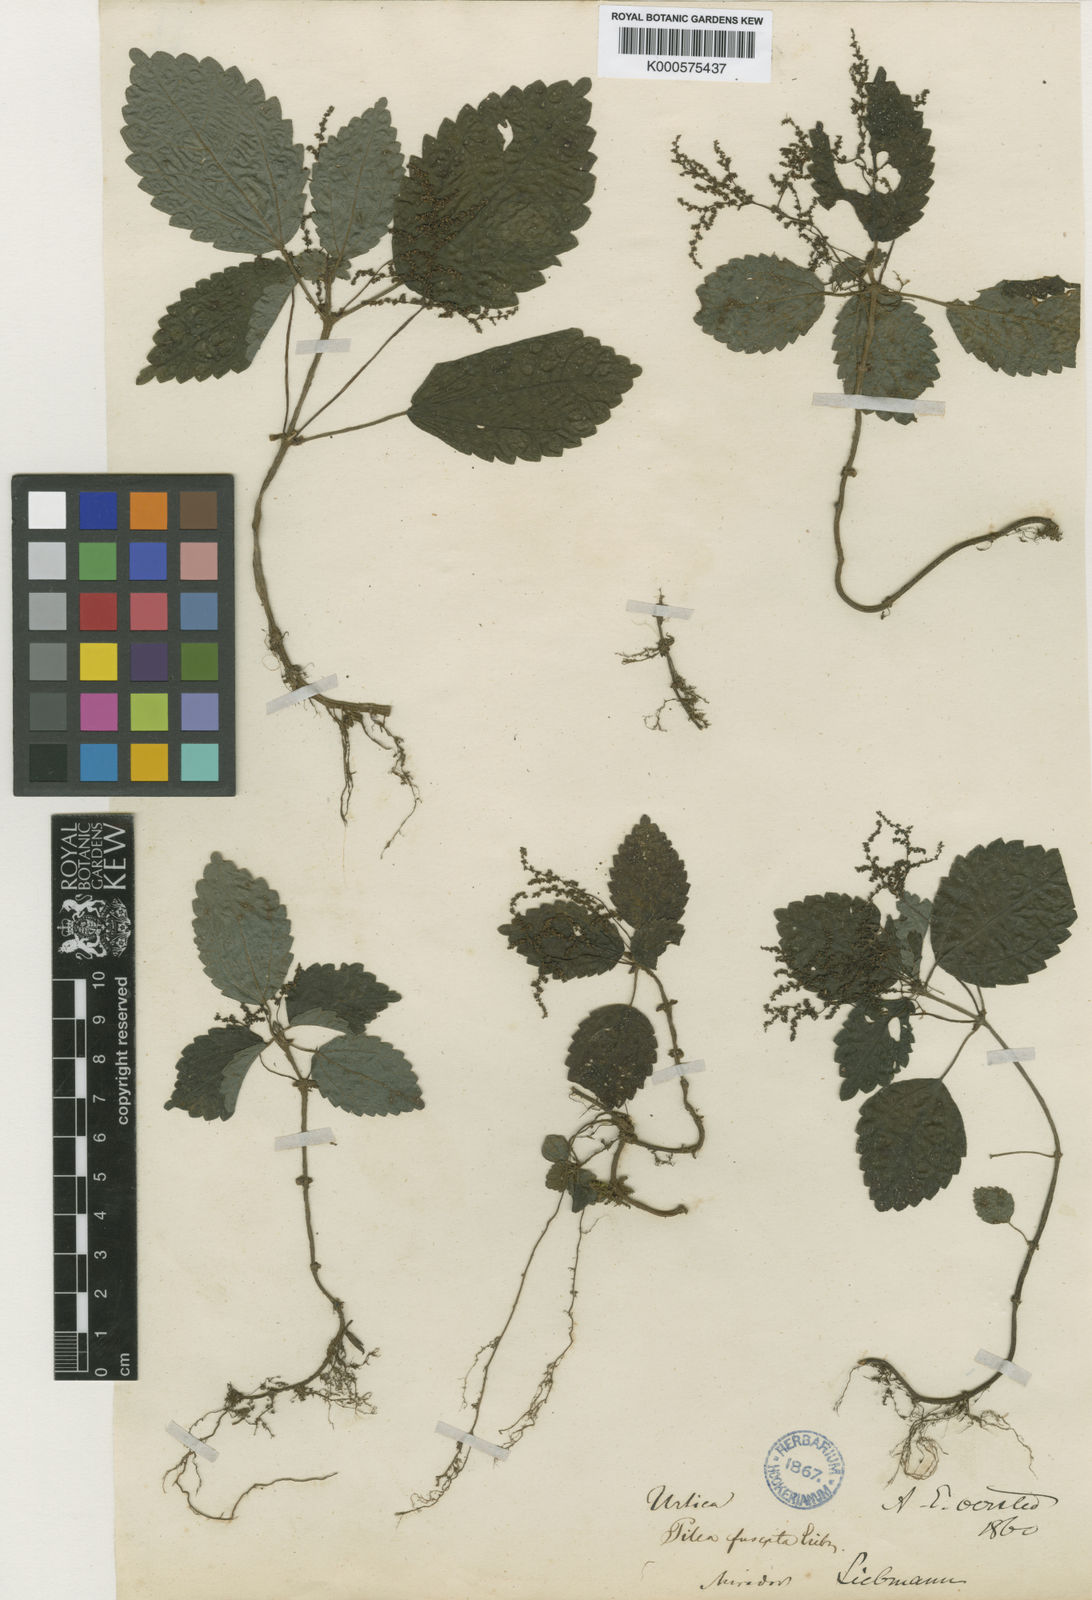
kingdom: Plantae
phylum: Tracheophyta
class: Magnoliopsida
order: Rosales
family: Urticaceae
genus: Pilea
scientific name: Pilea pubescens
